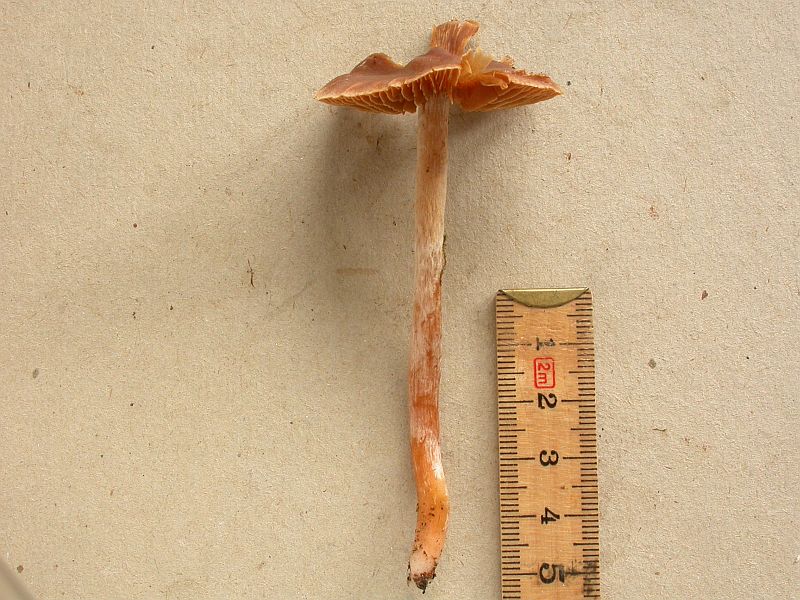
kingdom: Fungi
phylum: Basidiomycota
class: Agaricomycetes
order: Agaricales
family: Cortinariaceae
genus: Cortinarius
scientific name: Cortinarius
